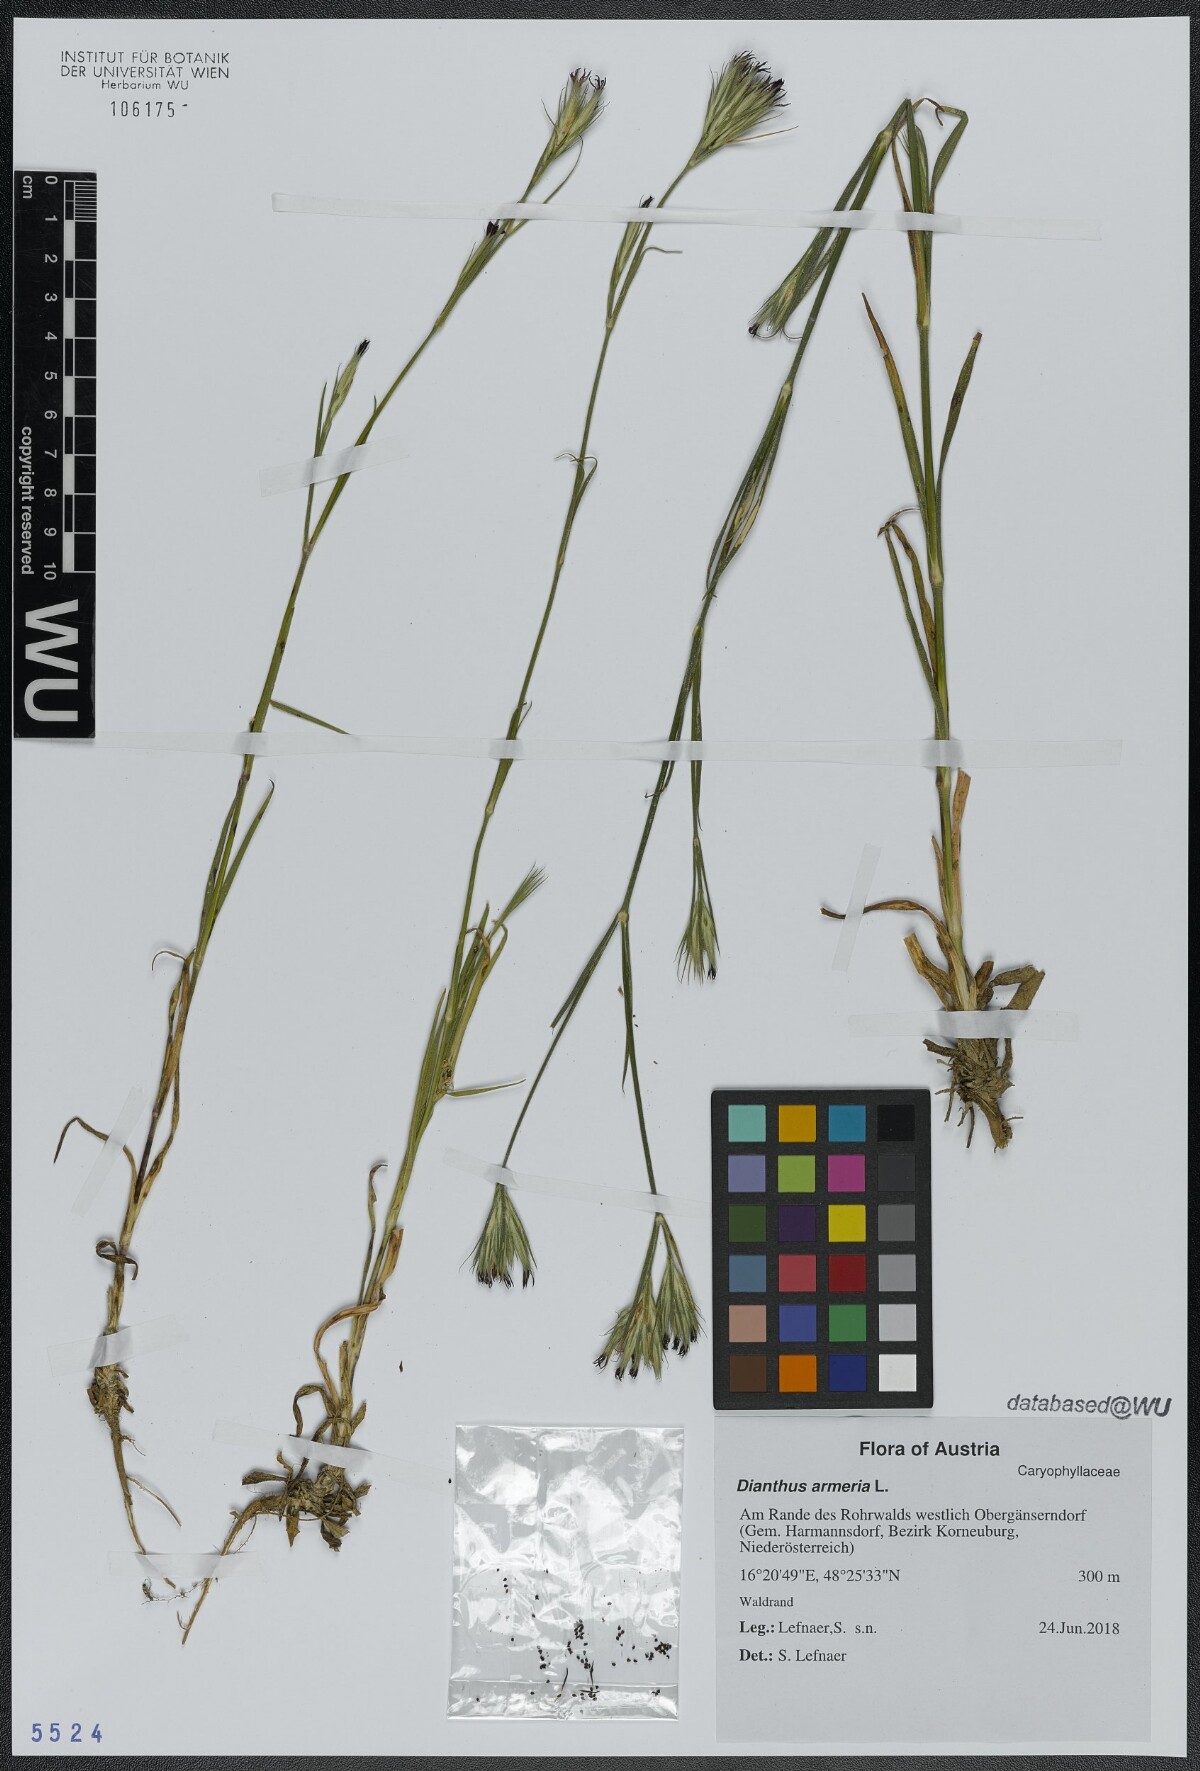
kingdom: Plantae
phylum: Tracheophyta
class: Magnoliopsida
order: Caryophyllales
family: Caryophyllaceae
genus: Dianthus
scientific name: Dianthus armeria
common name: Deptford pink
